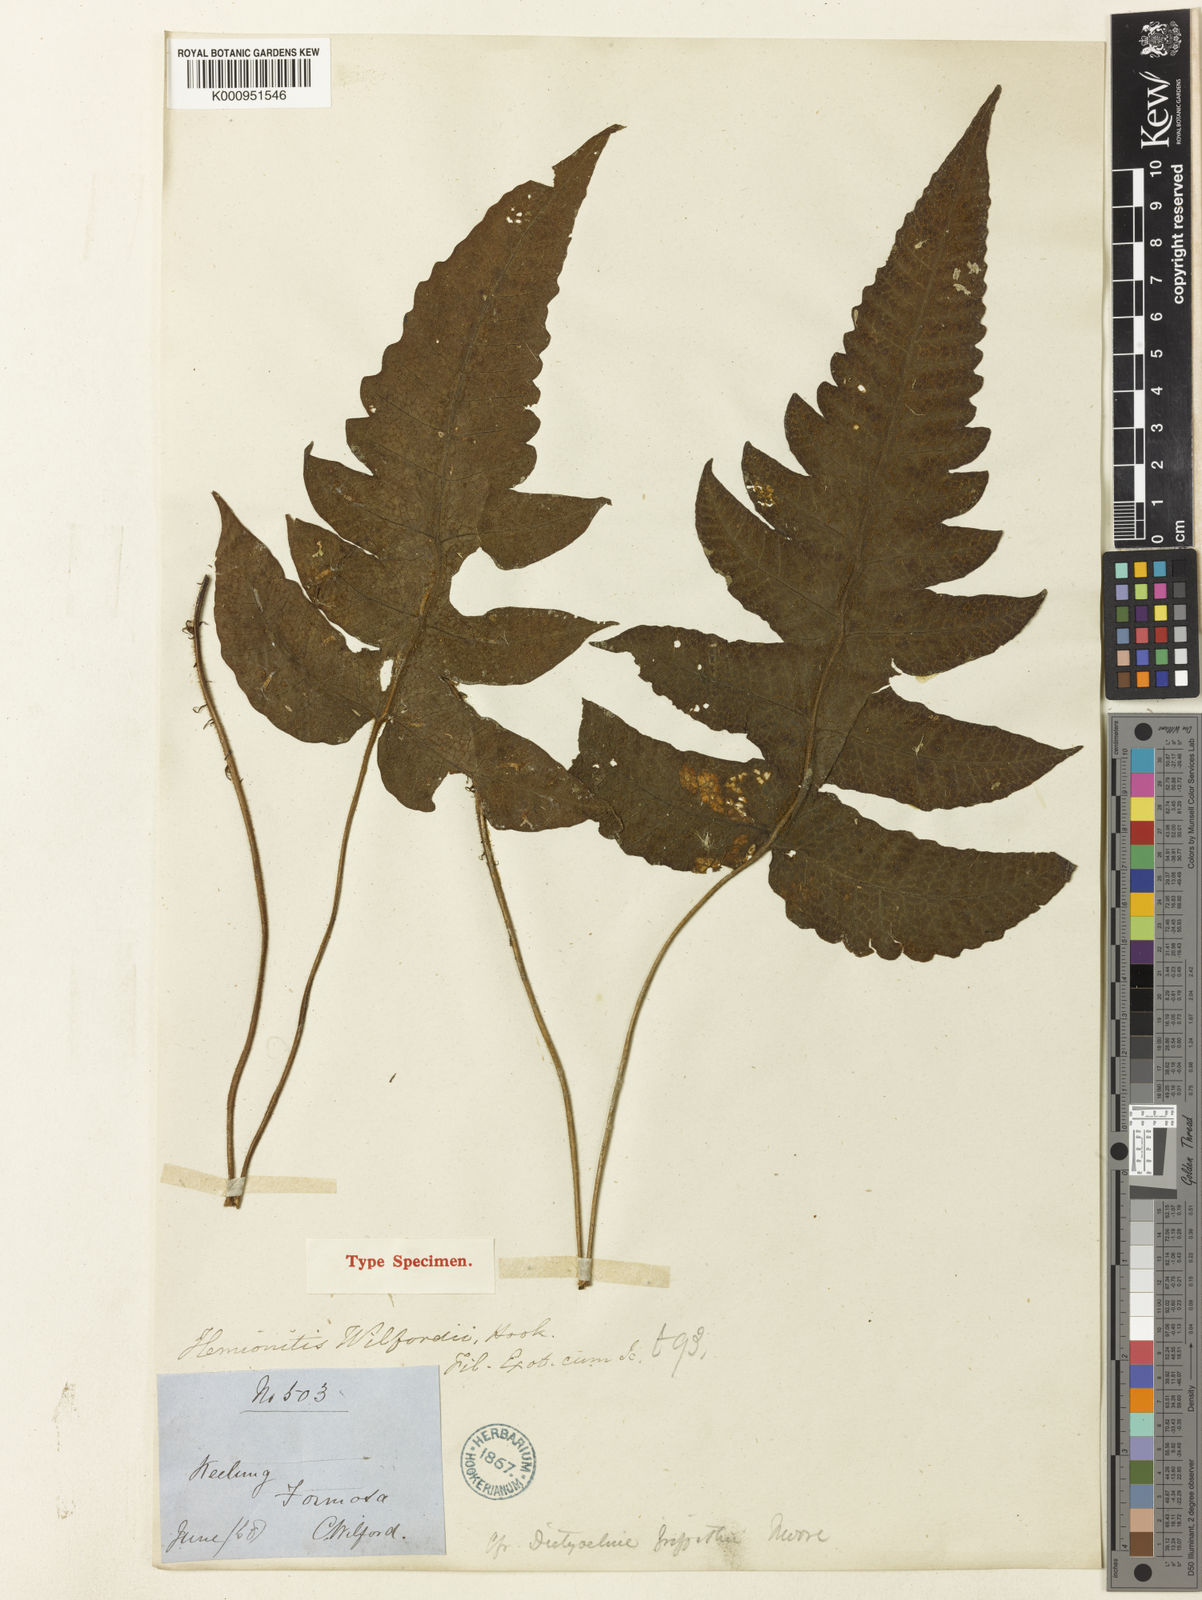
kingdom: Plantae
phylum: Tracheophyta
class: Polypodiopsida
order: Polypodiales
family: Thelypteridaceae
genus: Stegnogramma
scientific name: Stegnogramma griffithii
